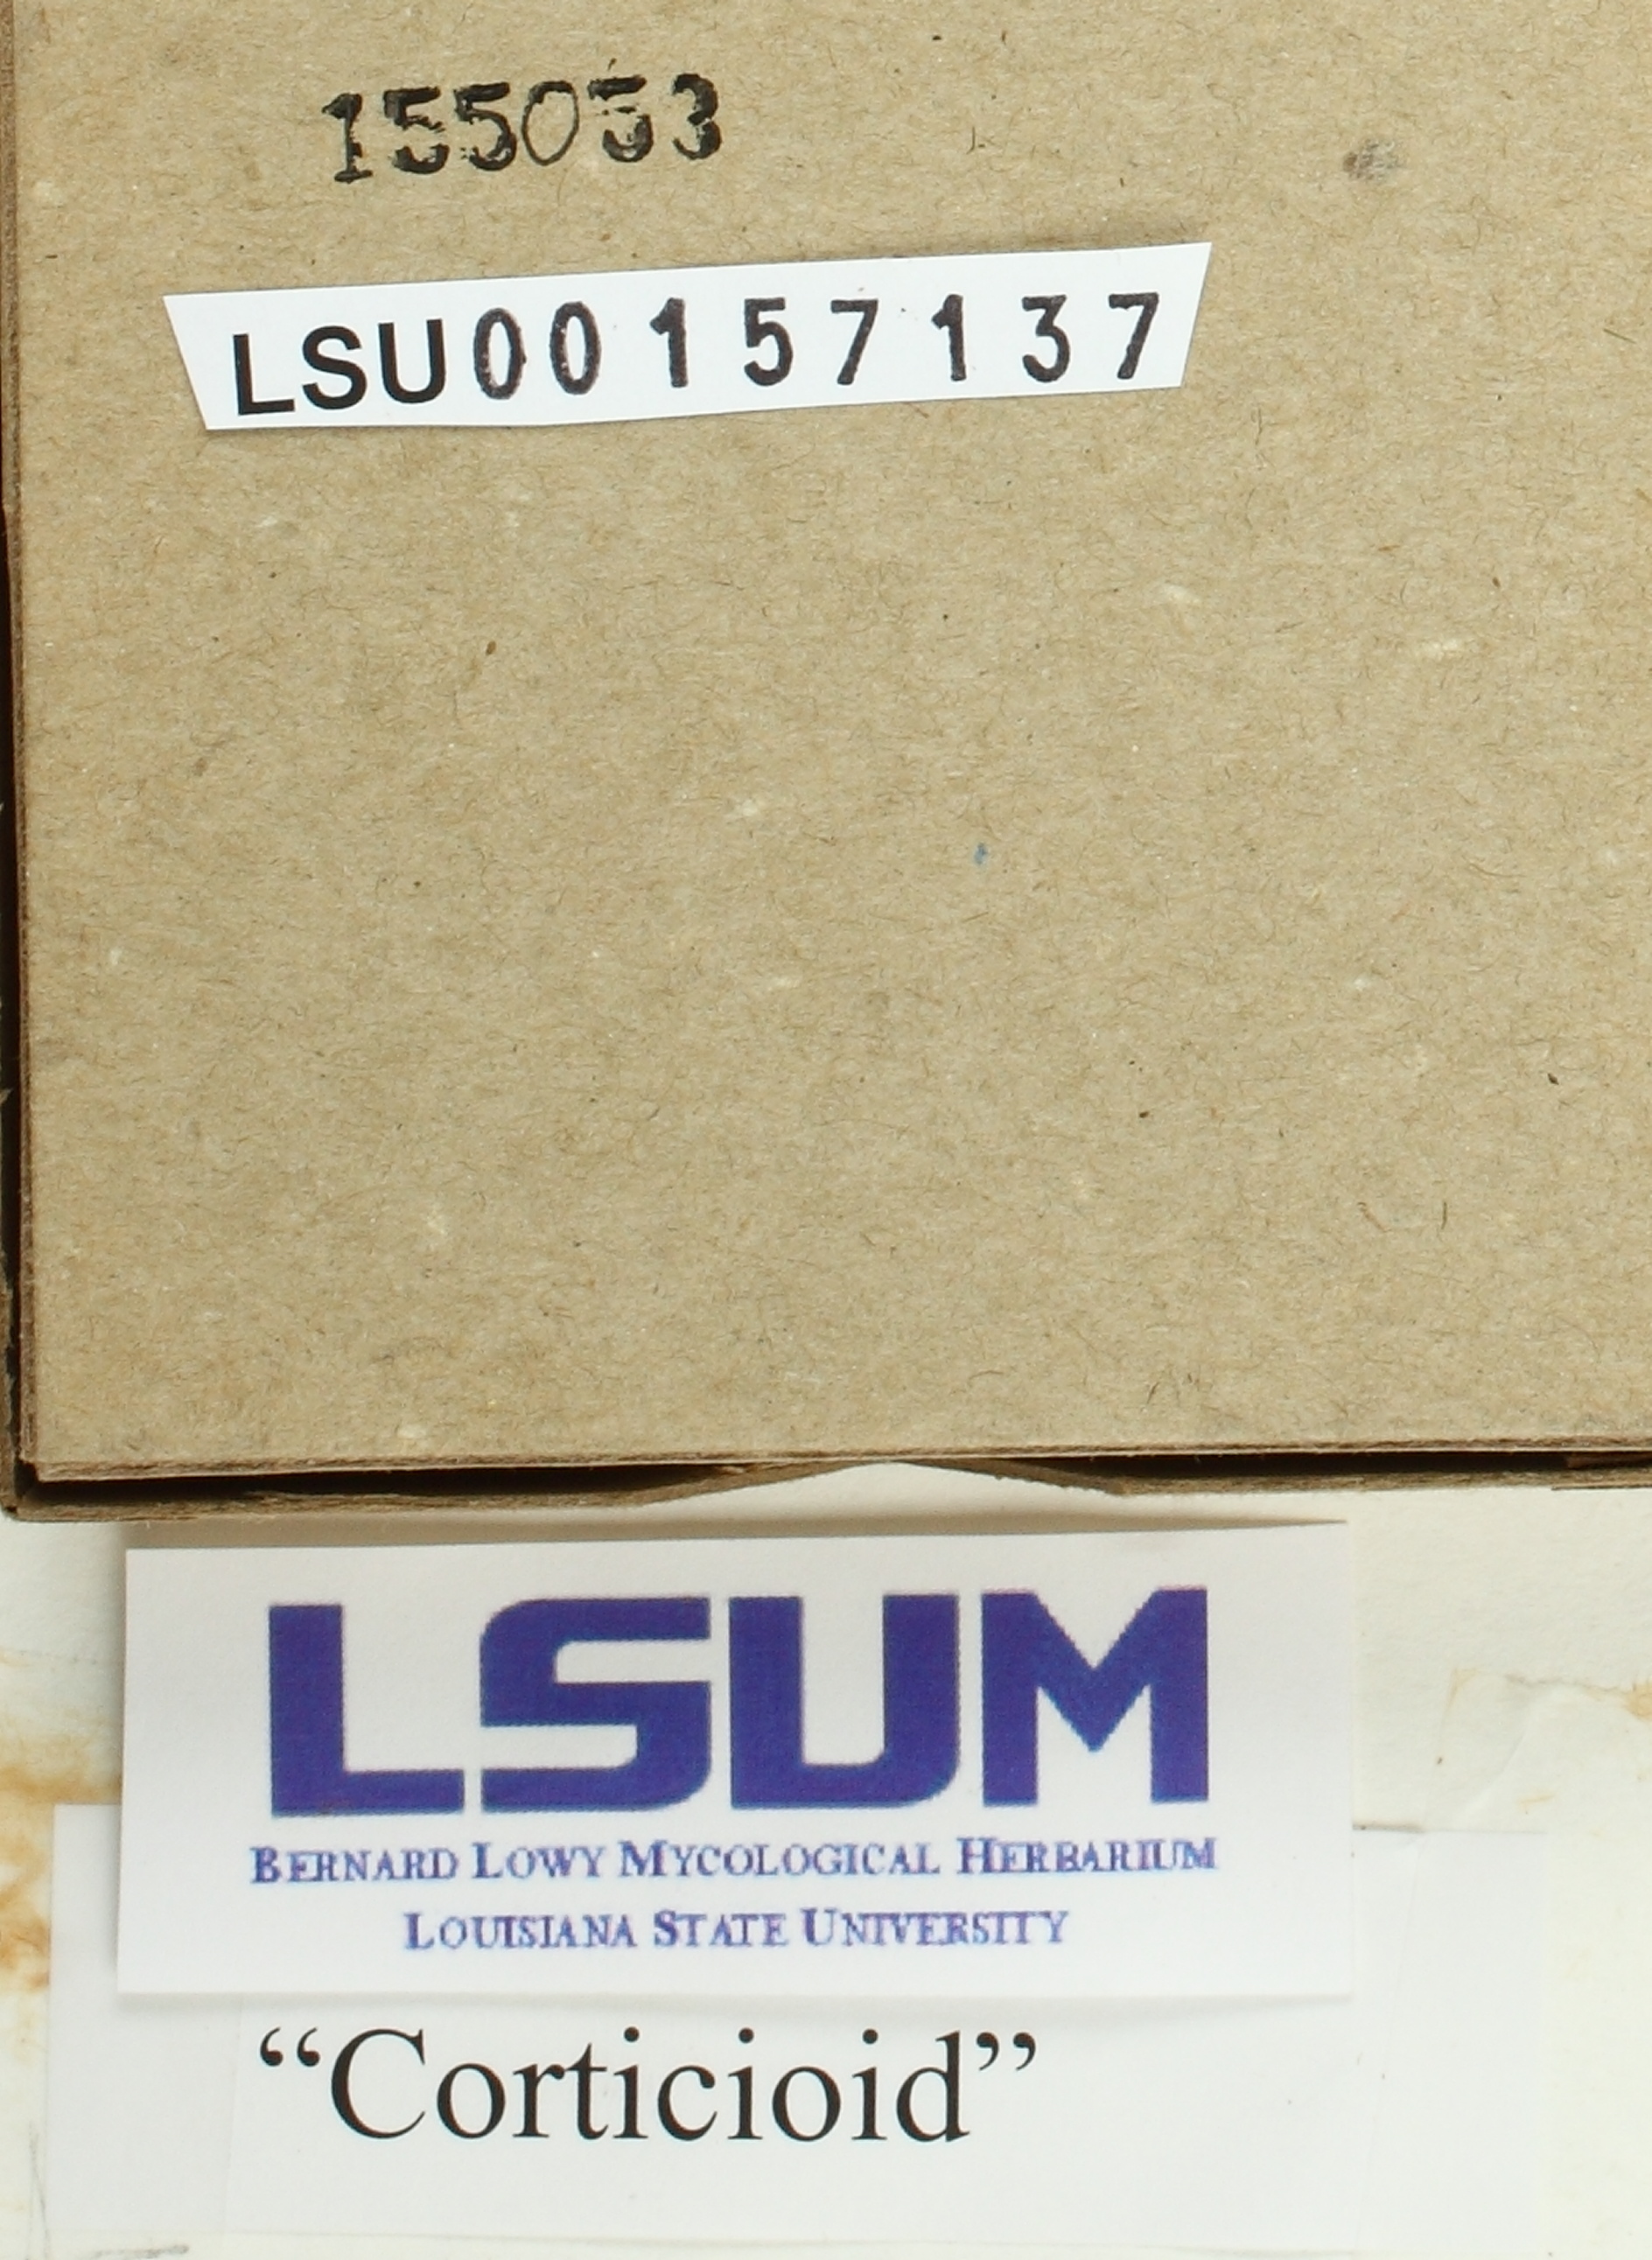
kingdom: Fungi
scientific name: Fungi
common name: Fungi
